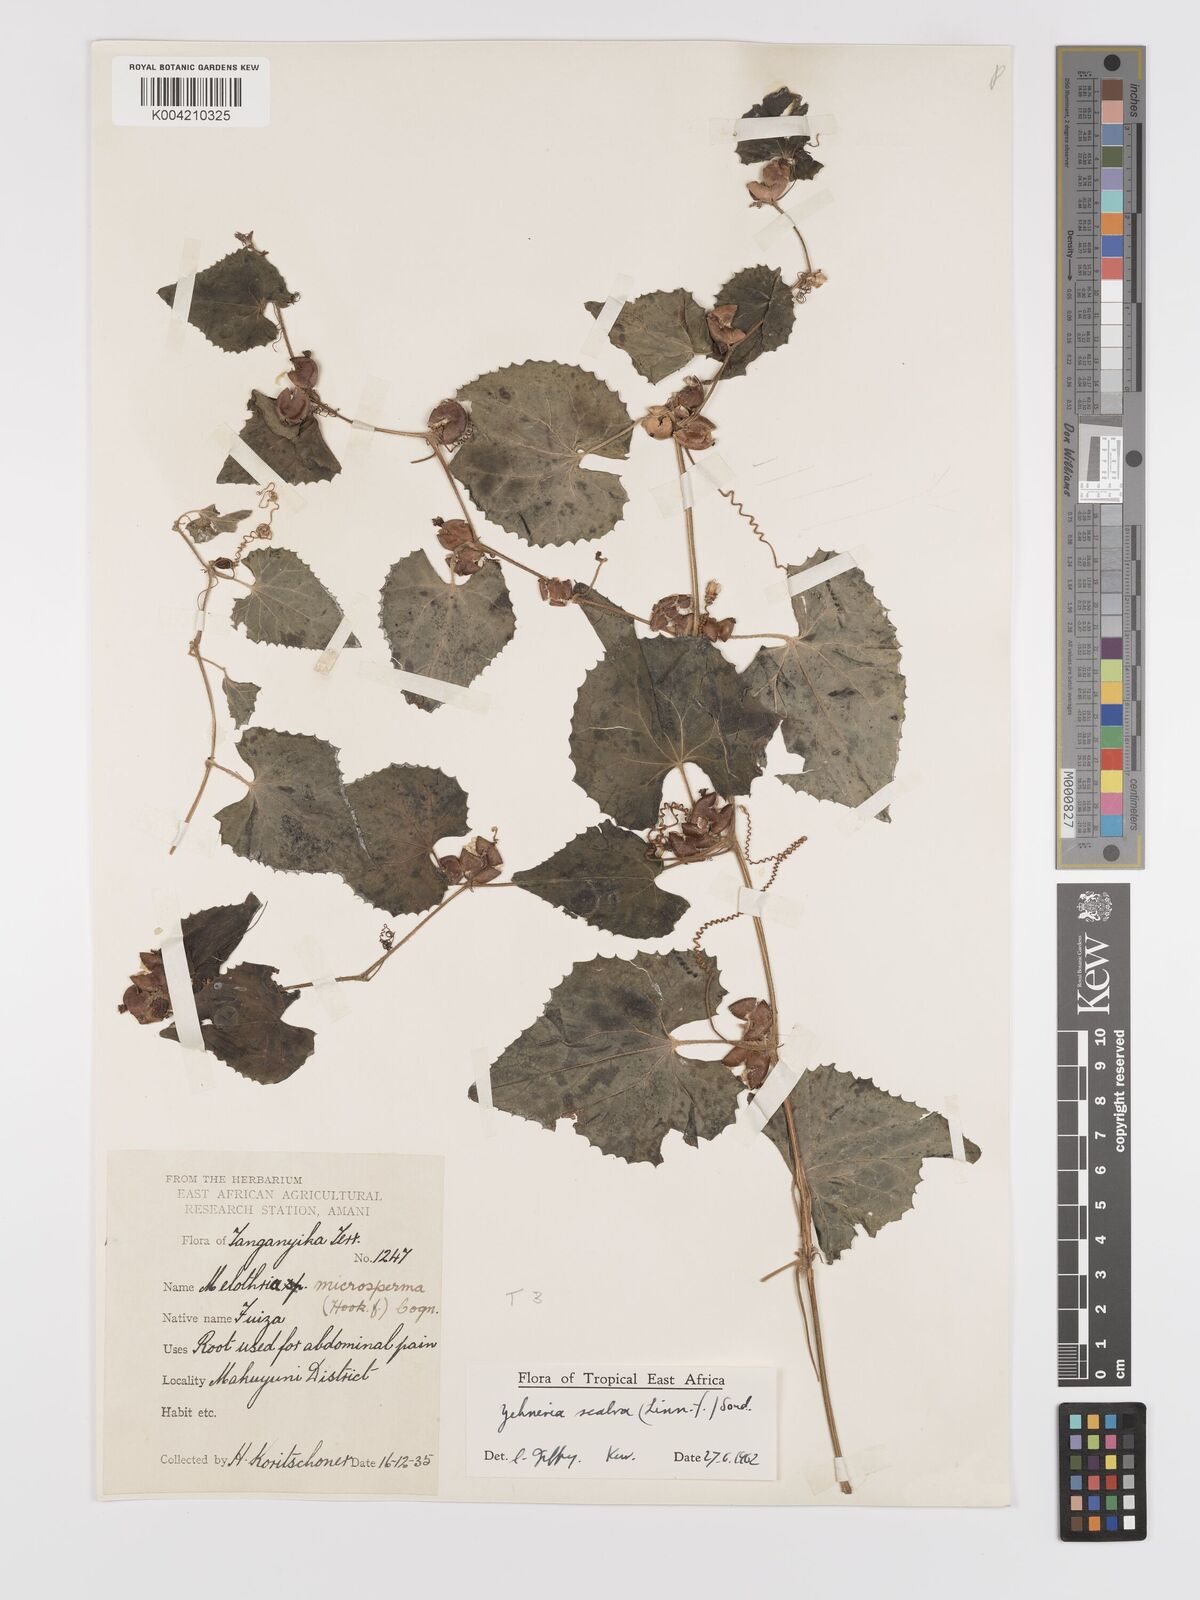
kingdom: Plantae
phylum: Tracheophyta
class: Magnoliopsida
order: Cucurbitales
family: Cucurbitaceae
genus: Zehneria
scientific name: Zehneria scabra
